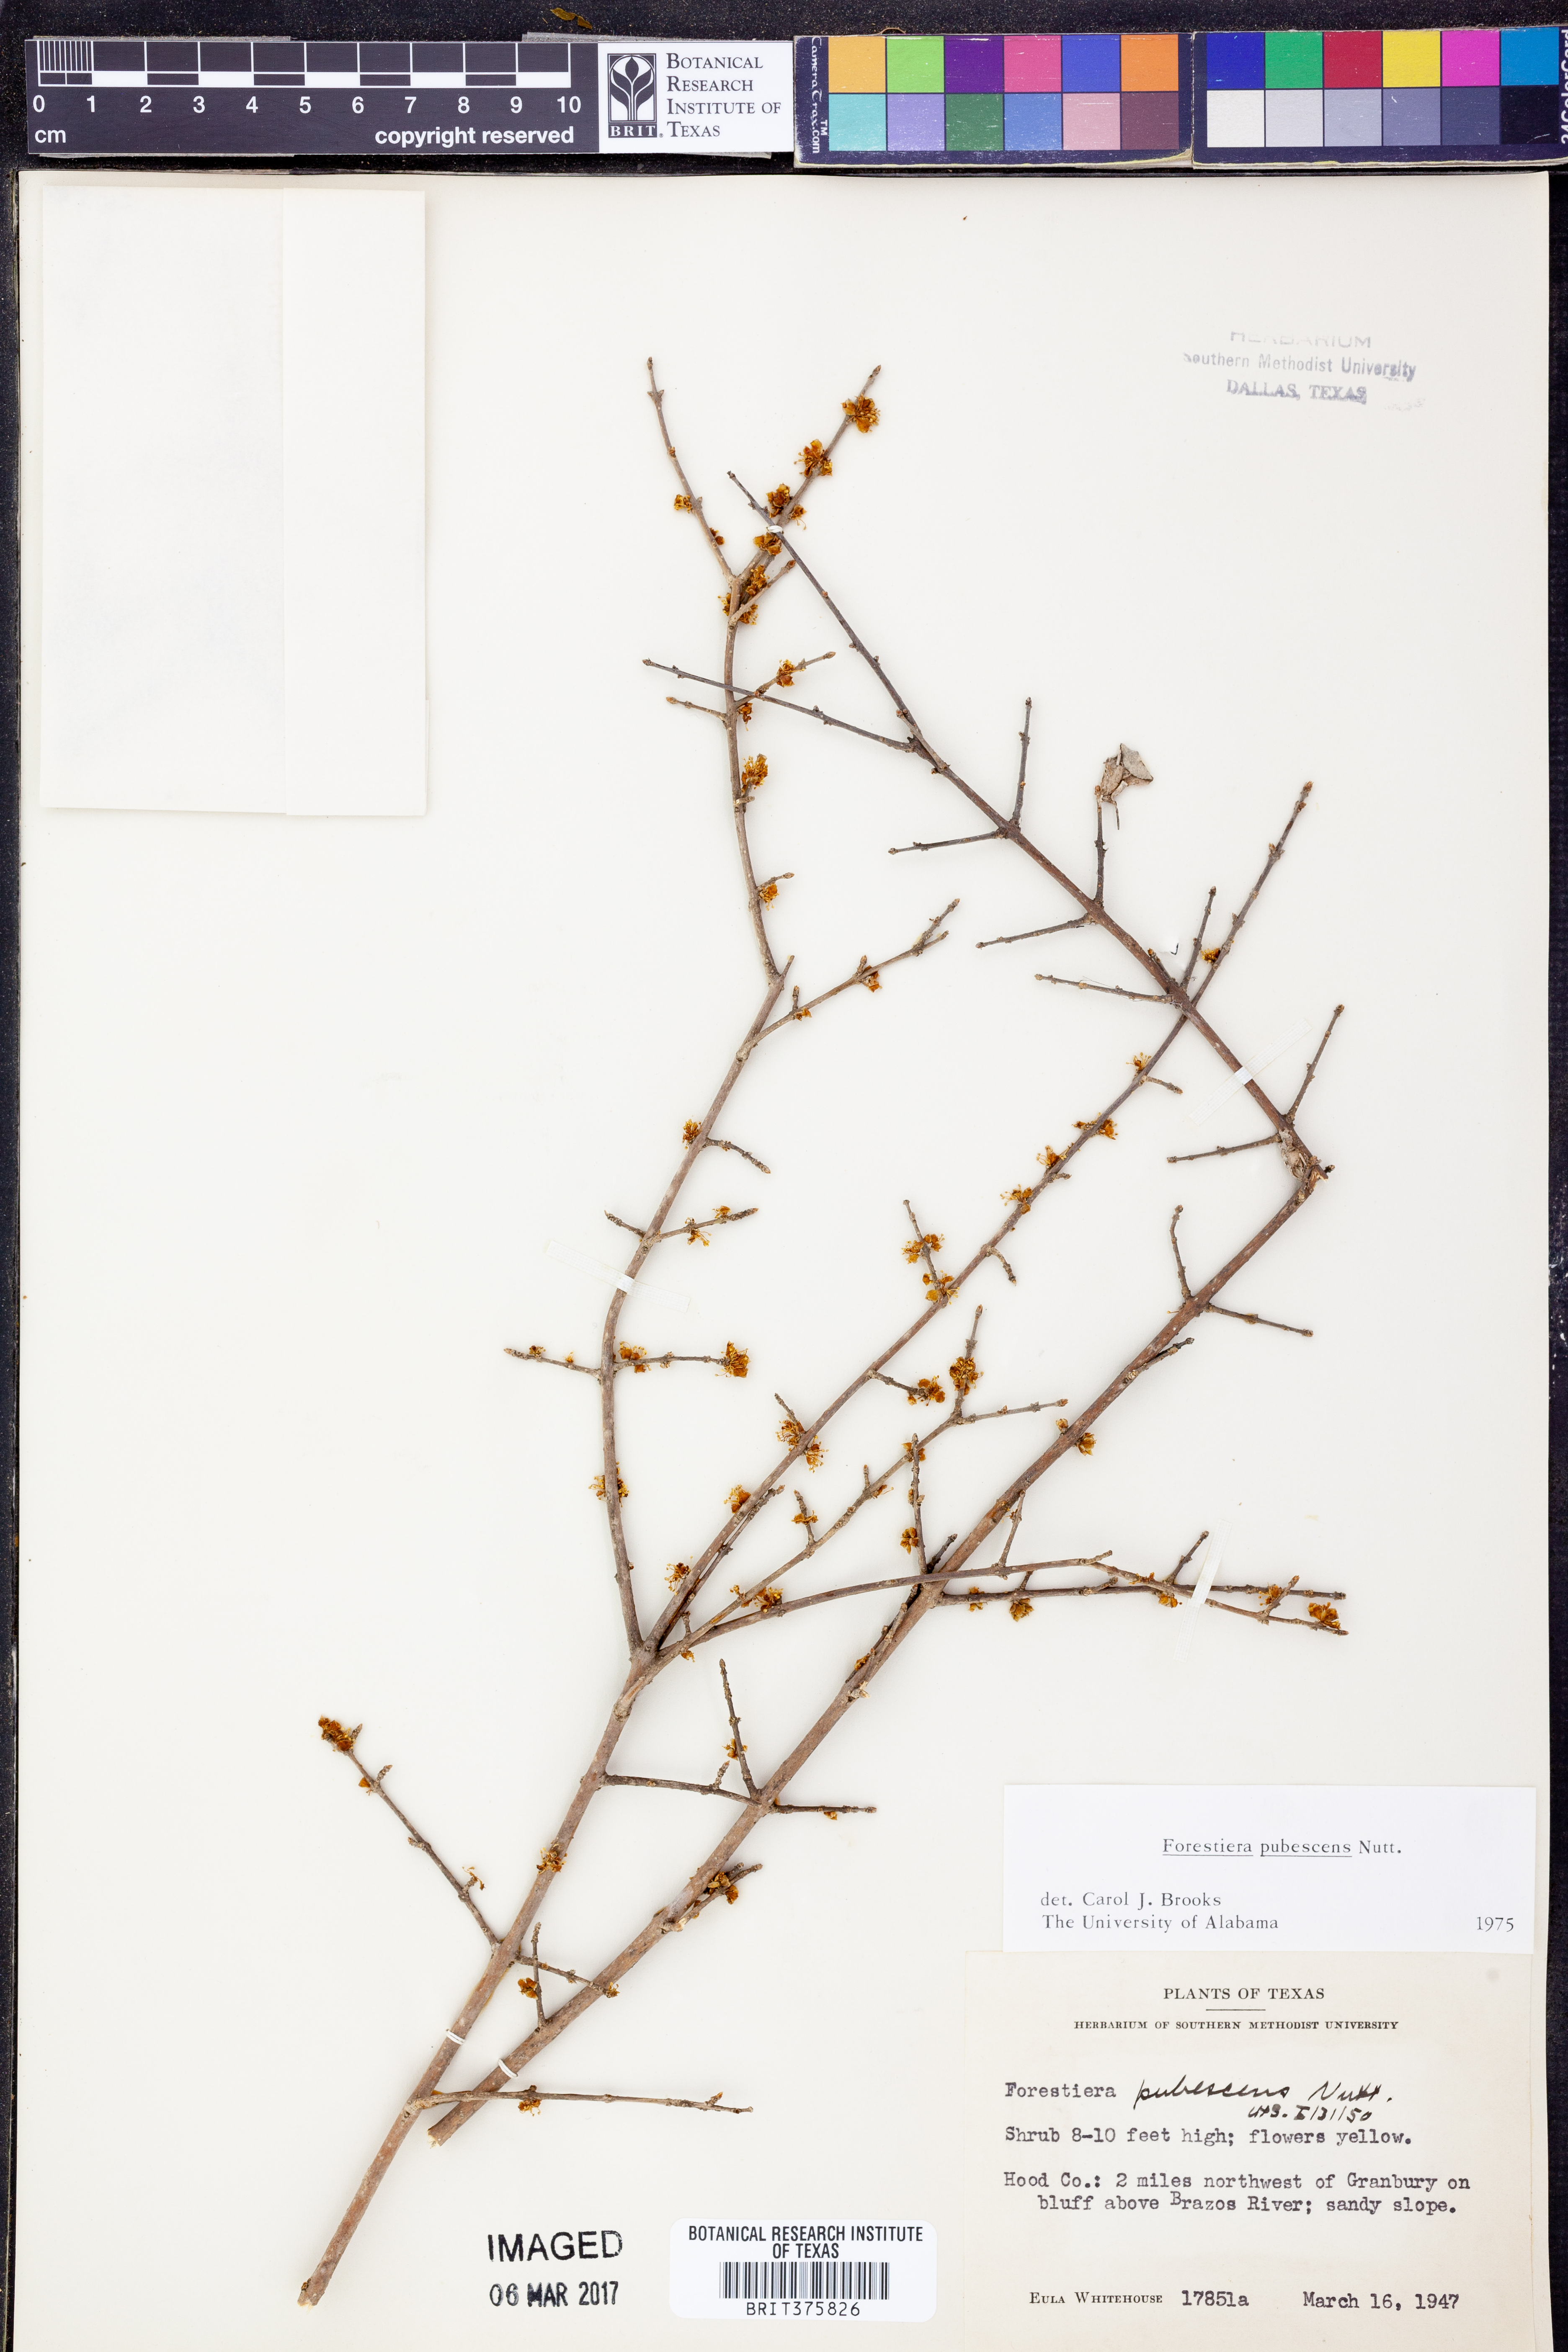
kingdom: Plantae
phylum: Tracheophyta
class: Magnoliopsida
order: Lamiales
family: Oleaceae
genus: Forestiera
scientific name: Forestiera pubescens
